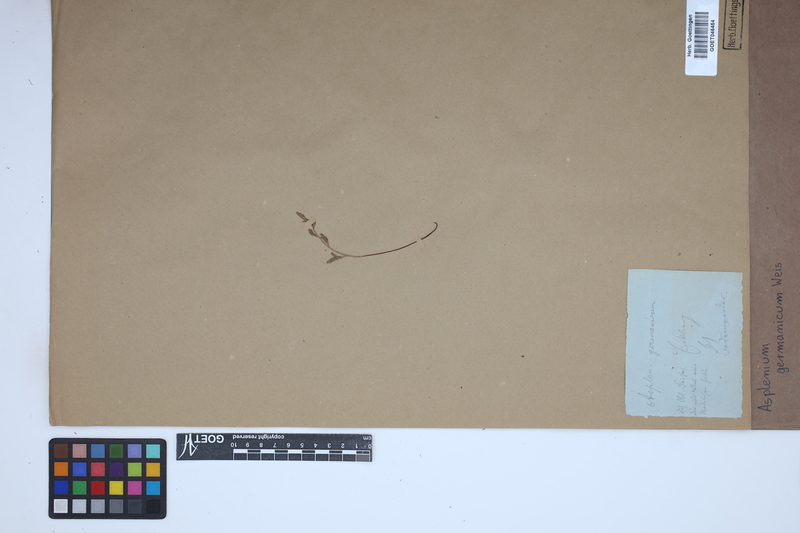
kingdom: Plantae
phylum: Tracheophyta
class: Polypodiopsida
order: Polypodiales
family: Aspleniaceae
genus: Asplenium
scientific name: Asplenium
